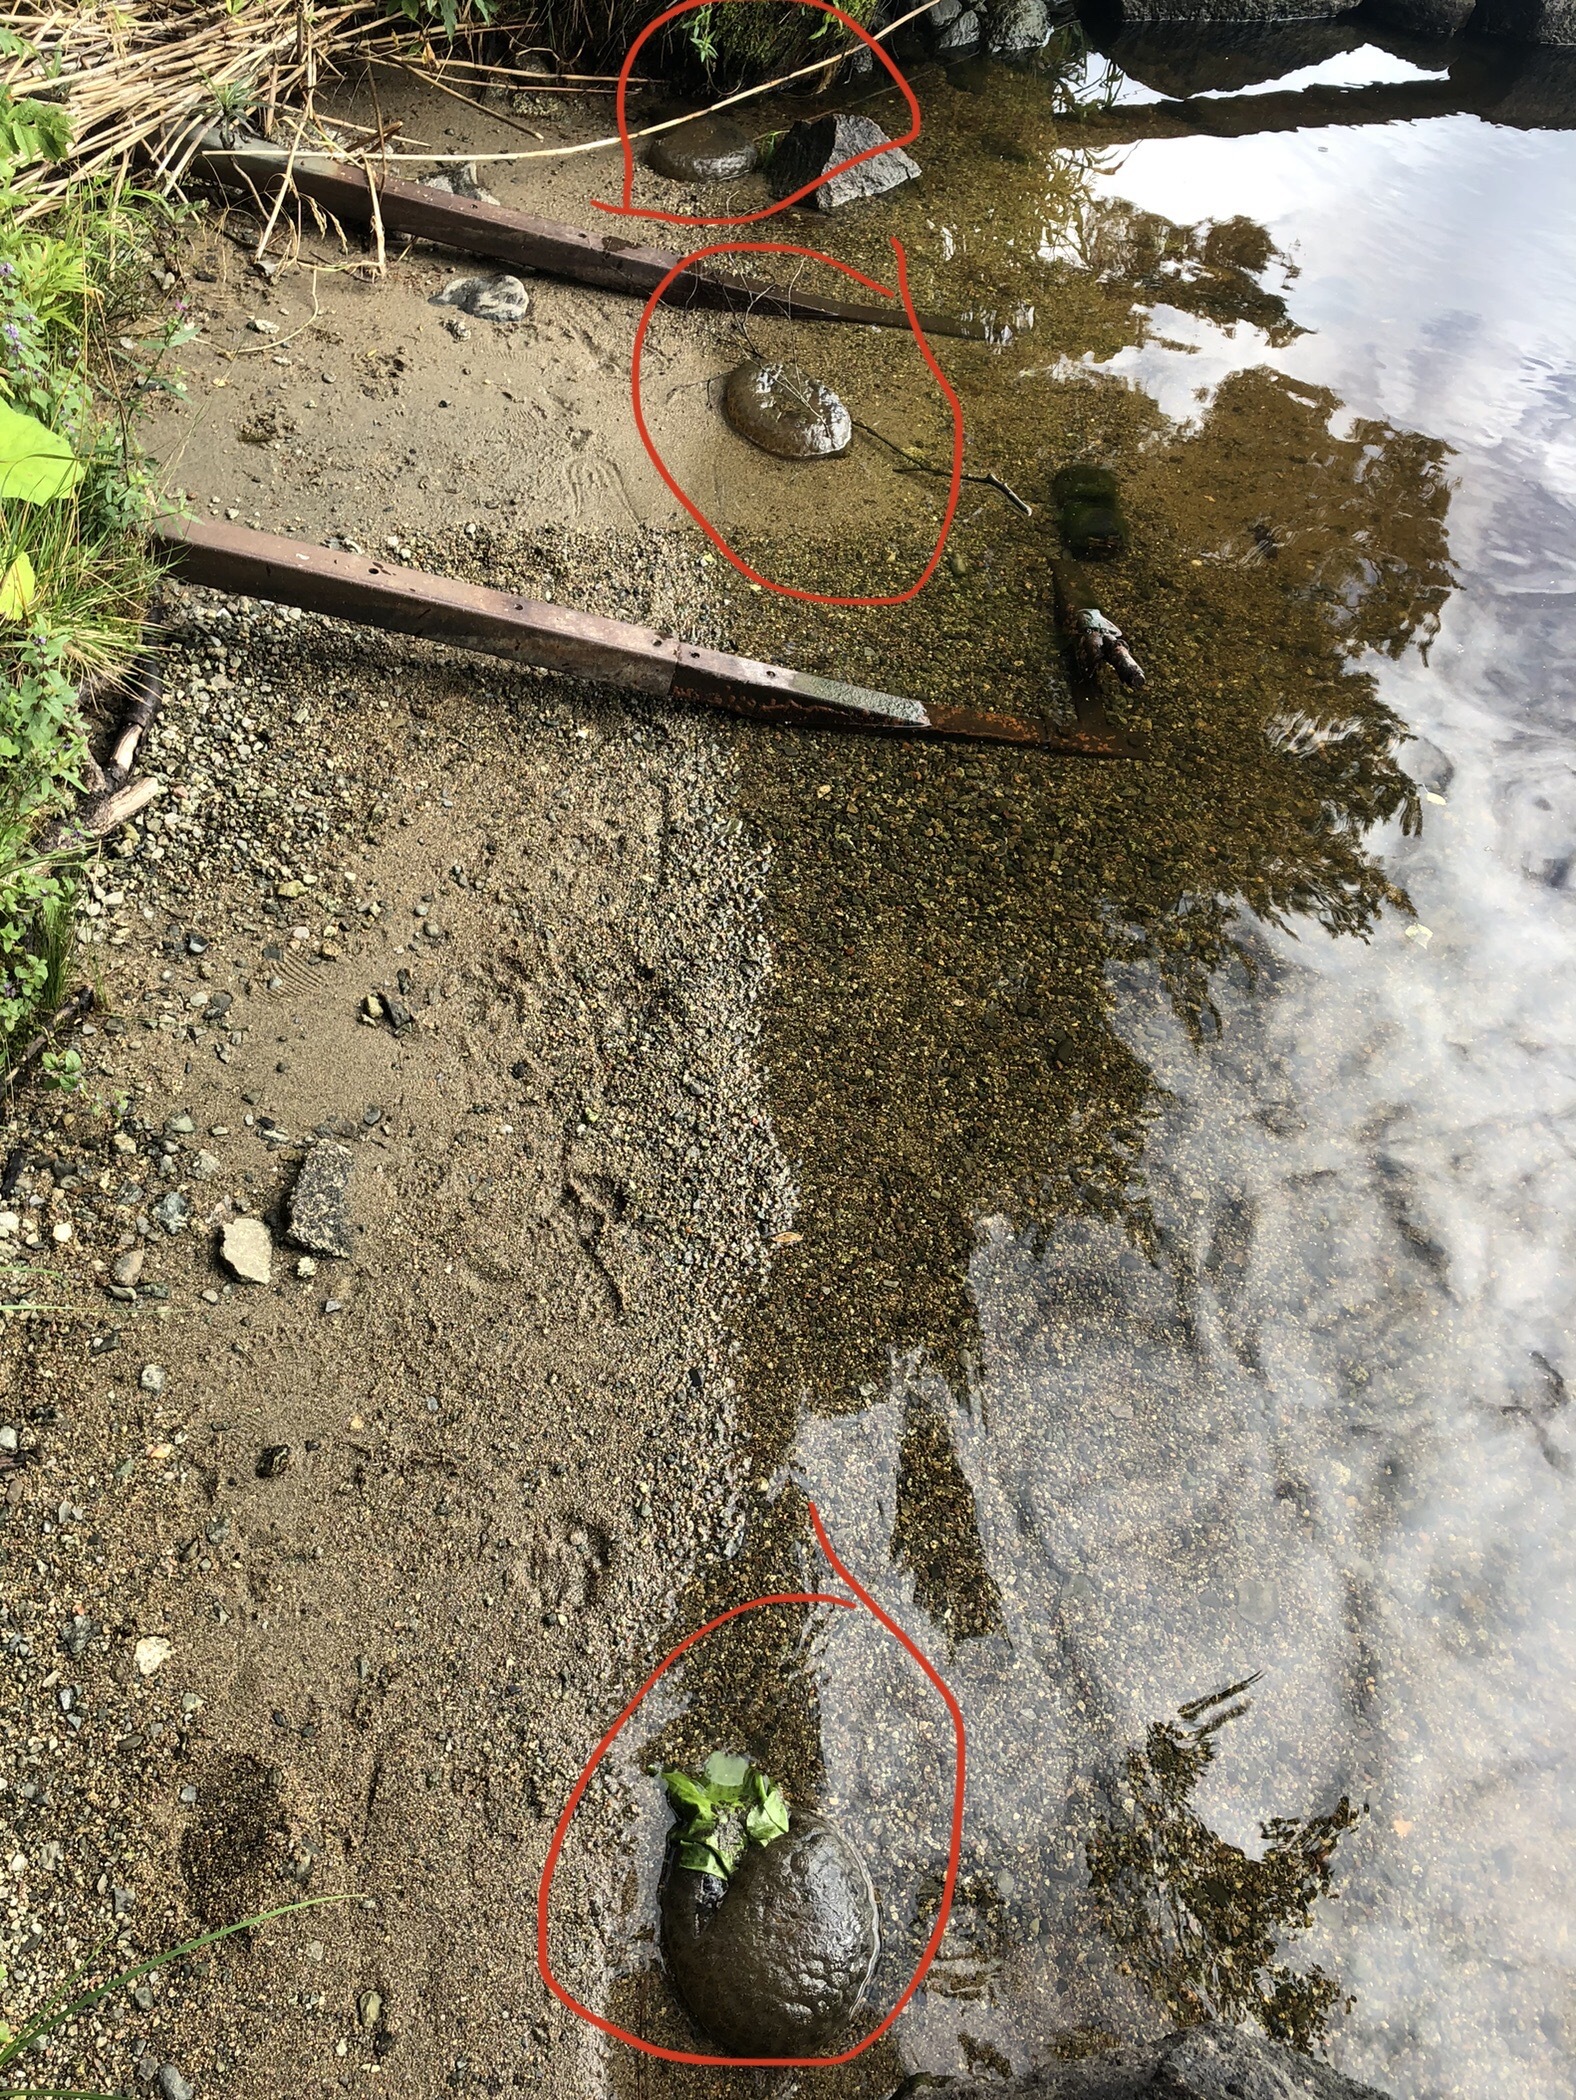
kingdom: Animalia
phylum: Bryozoa
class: Phylactolaemata
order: Plumatellida
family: Pectinatellidae
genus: Pectinatella
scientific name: Pectinatella magnifica
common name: Magnificent bryozoan
